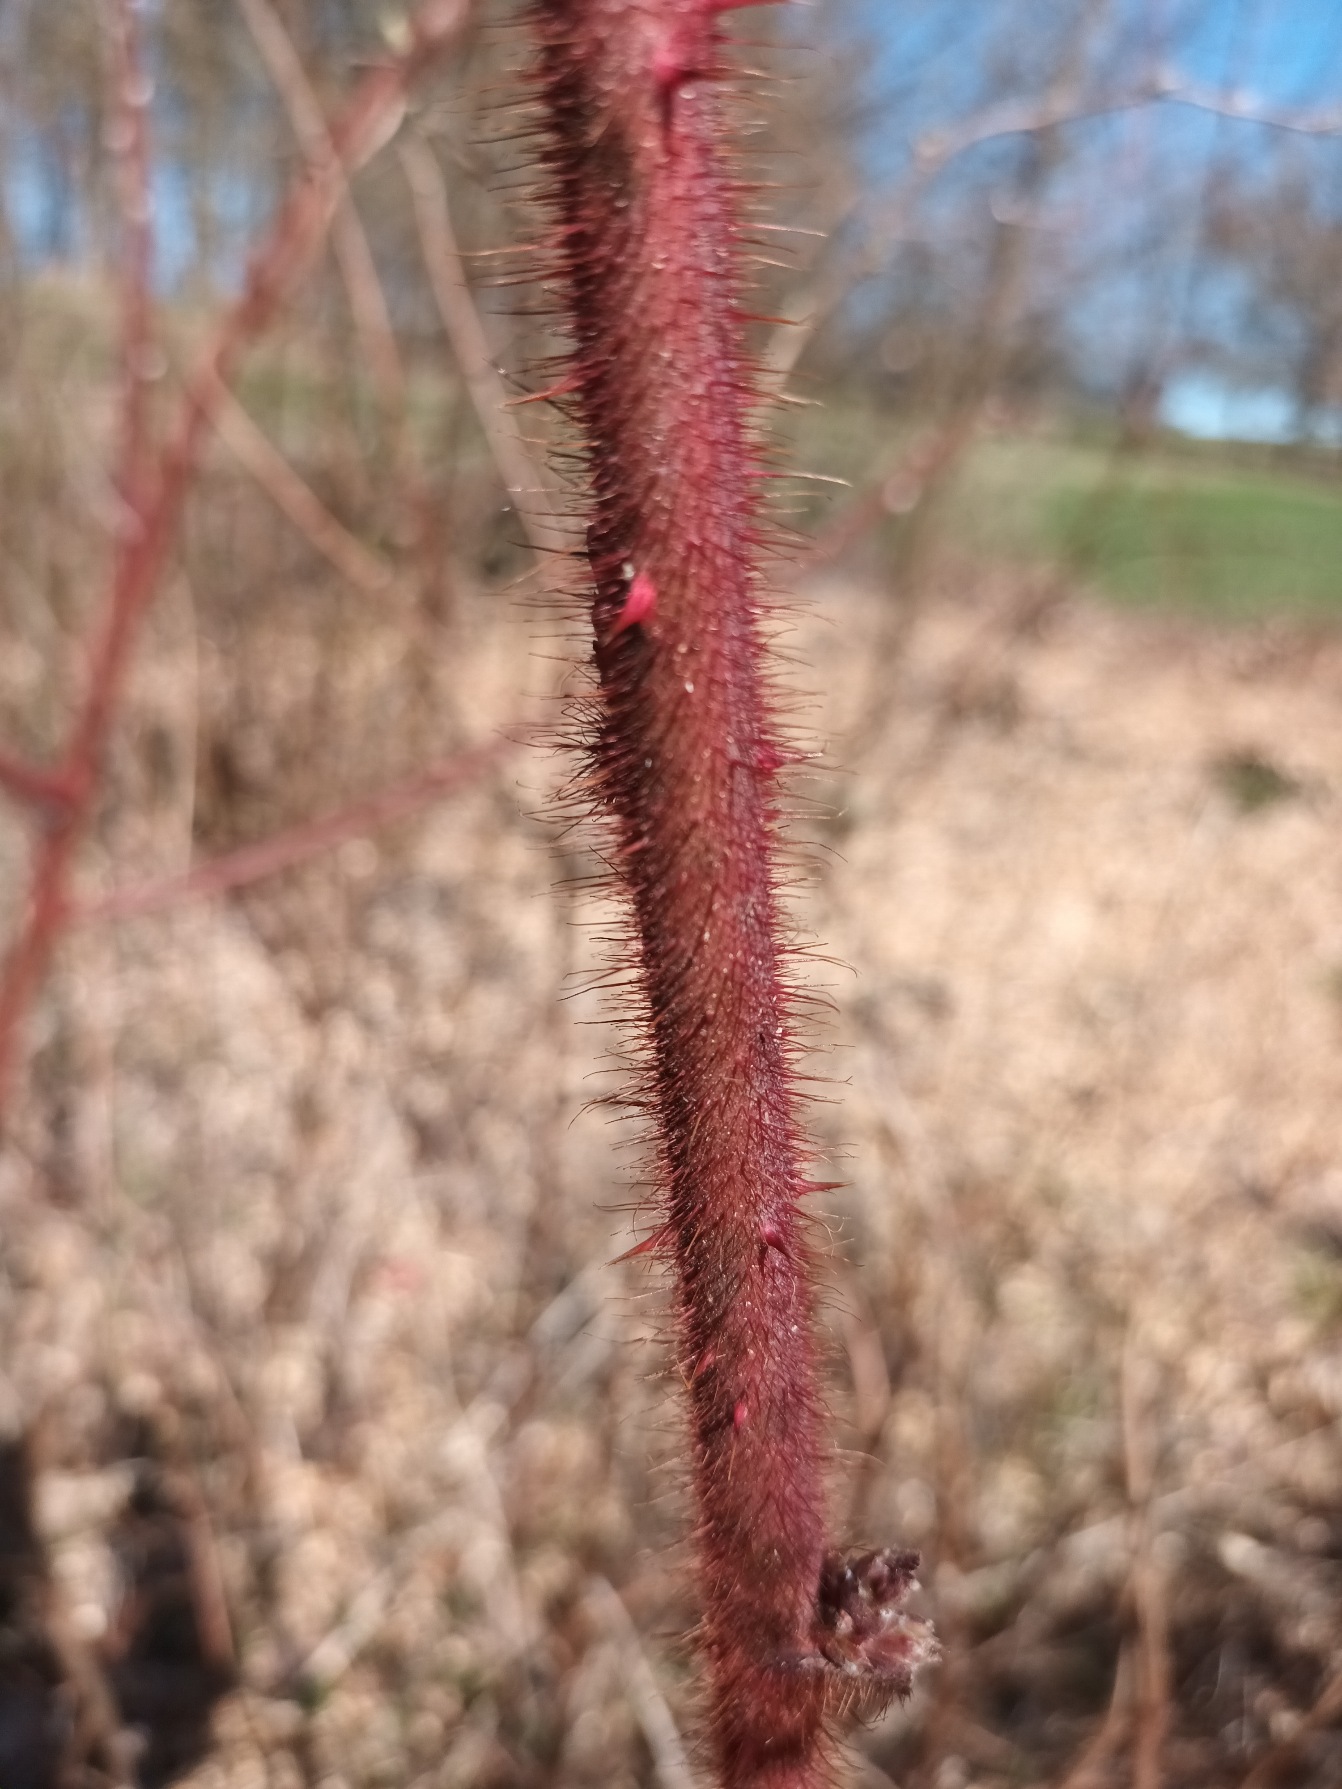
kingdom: Plantae
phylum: Tracheophyta
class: Magnoliopsida
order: Rosales
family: Rosaceae
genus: Rubus
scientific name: Rubus phoenicolasius
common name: Vin-brombær
